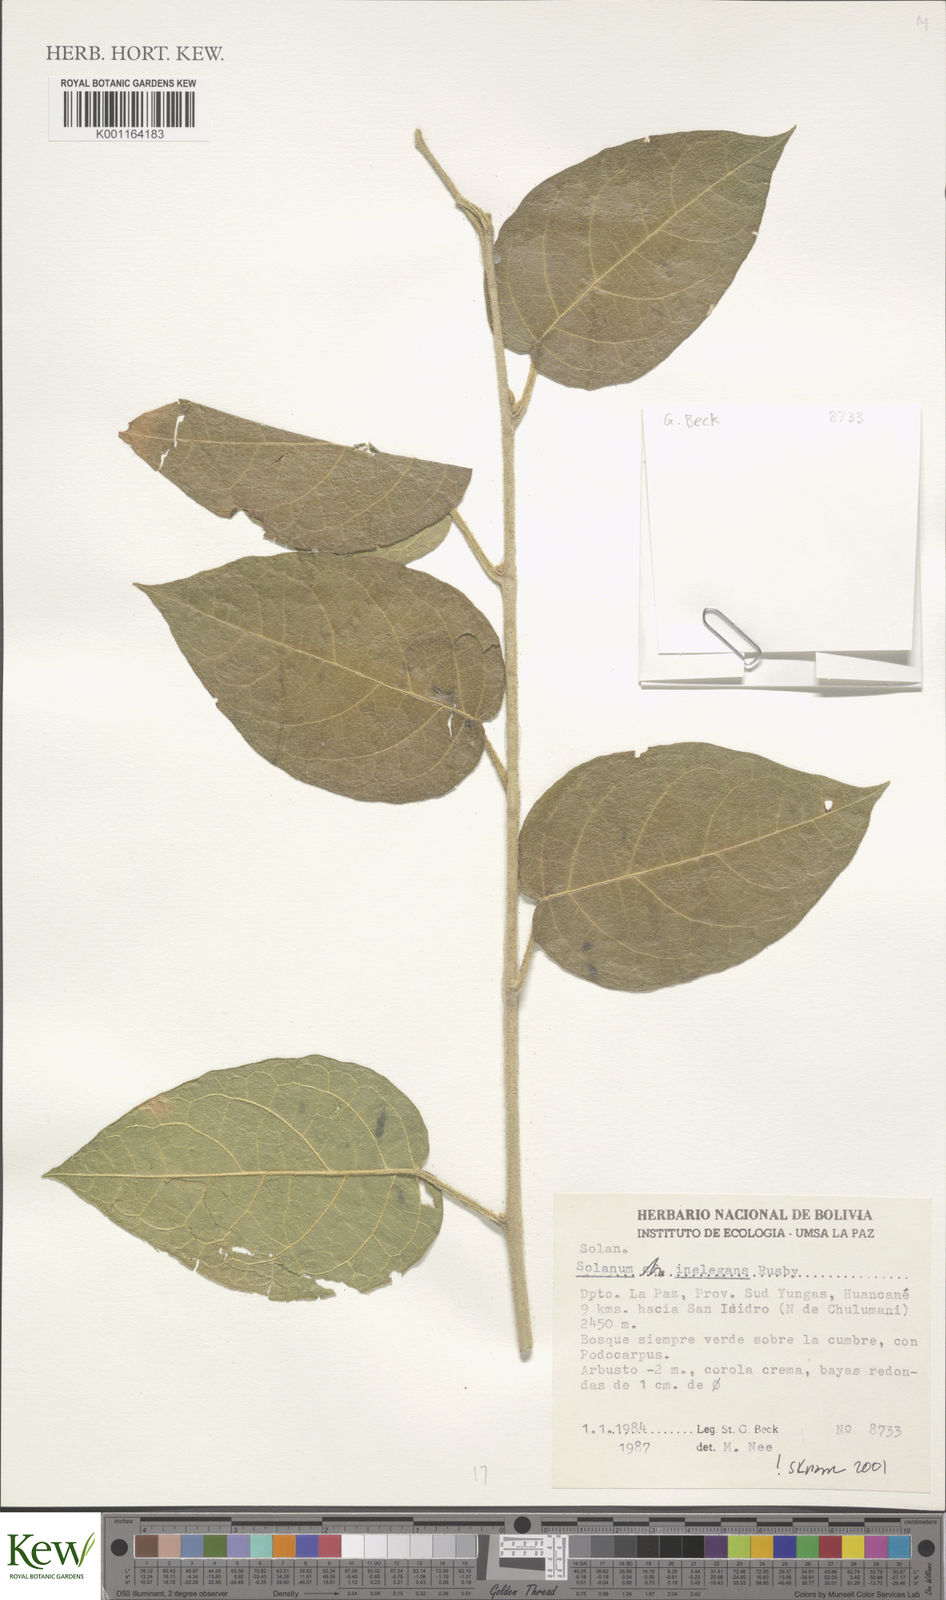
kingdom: Plantae
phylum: Tracheophyta
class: Magnoliopsida
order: Solanales
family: Solanaceae
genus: Solanum
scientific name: Solanum inelegans
